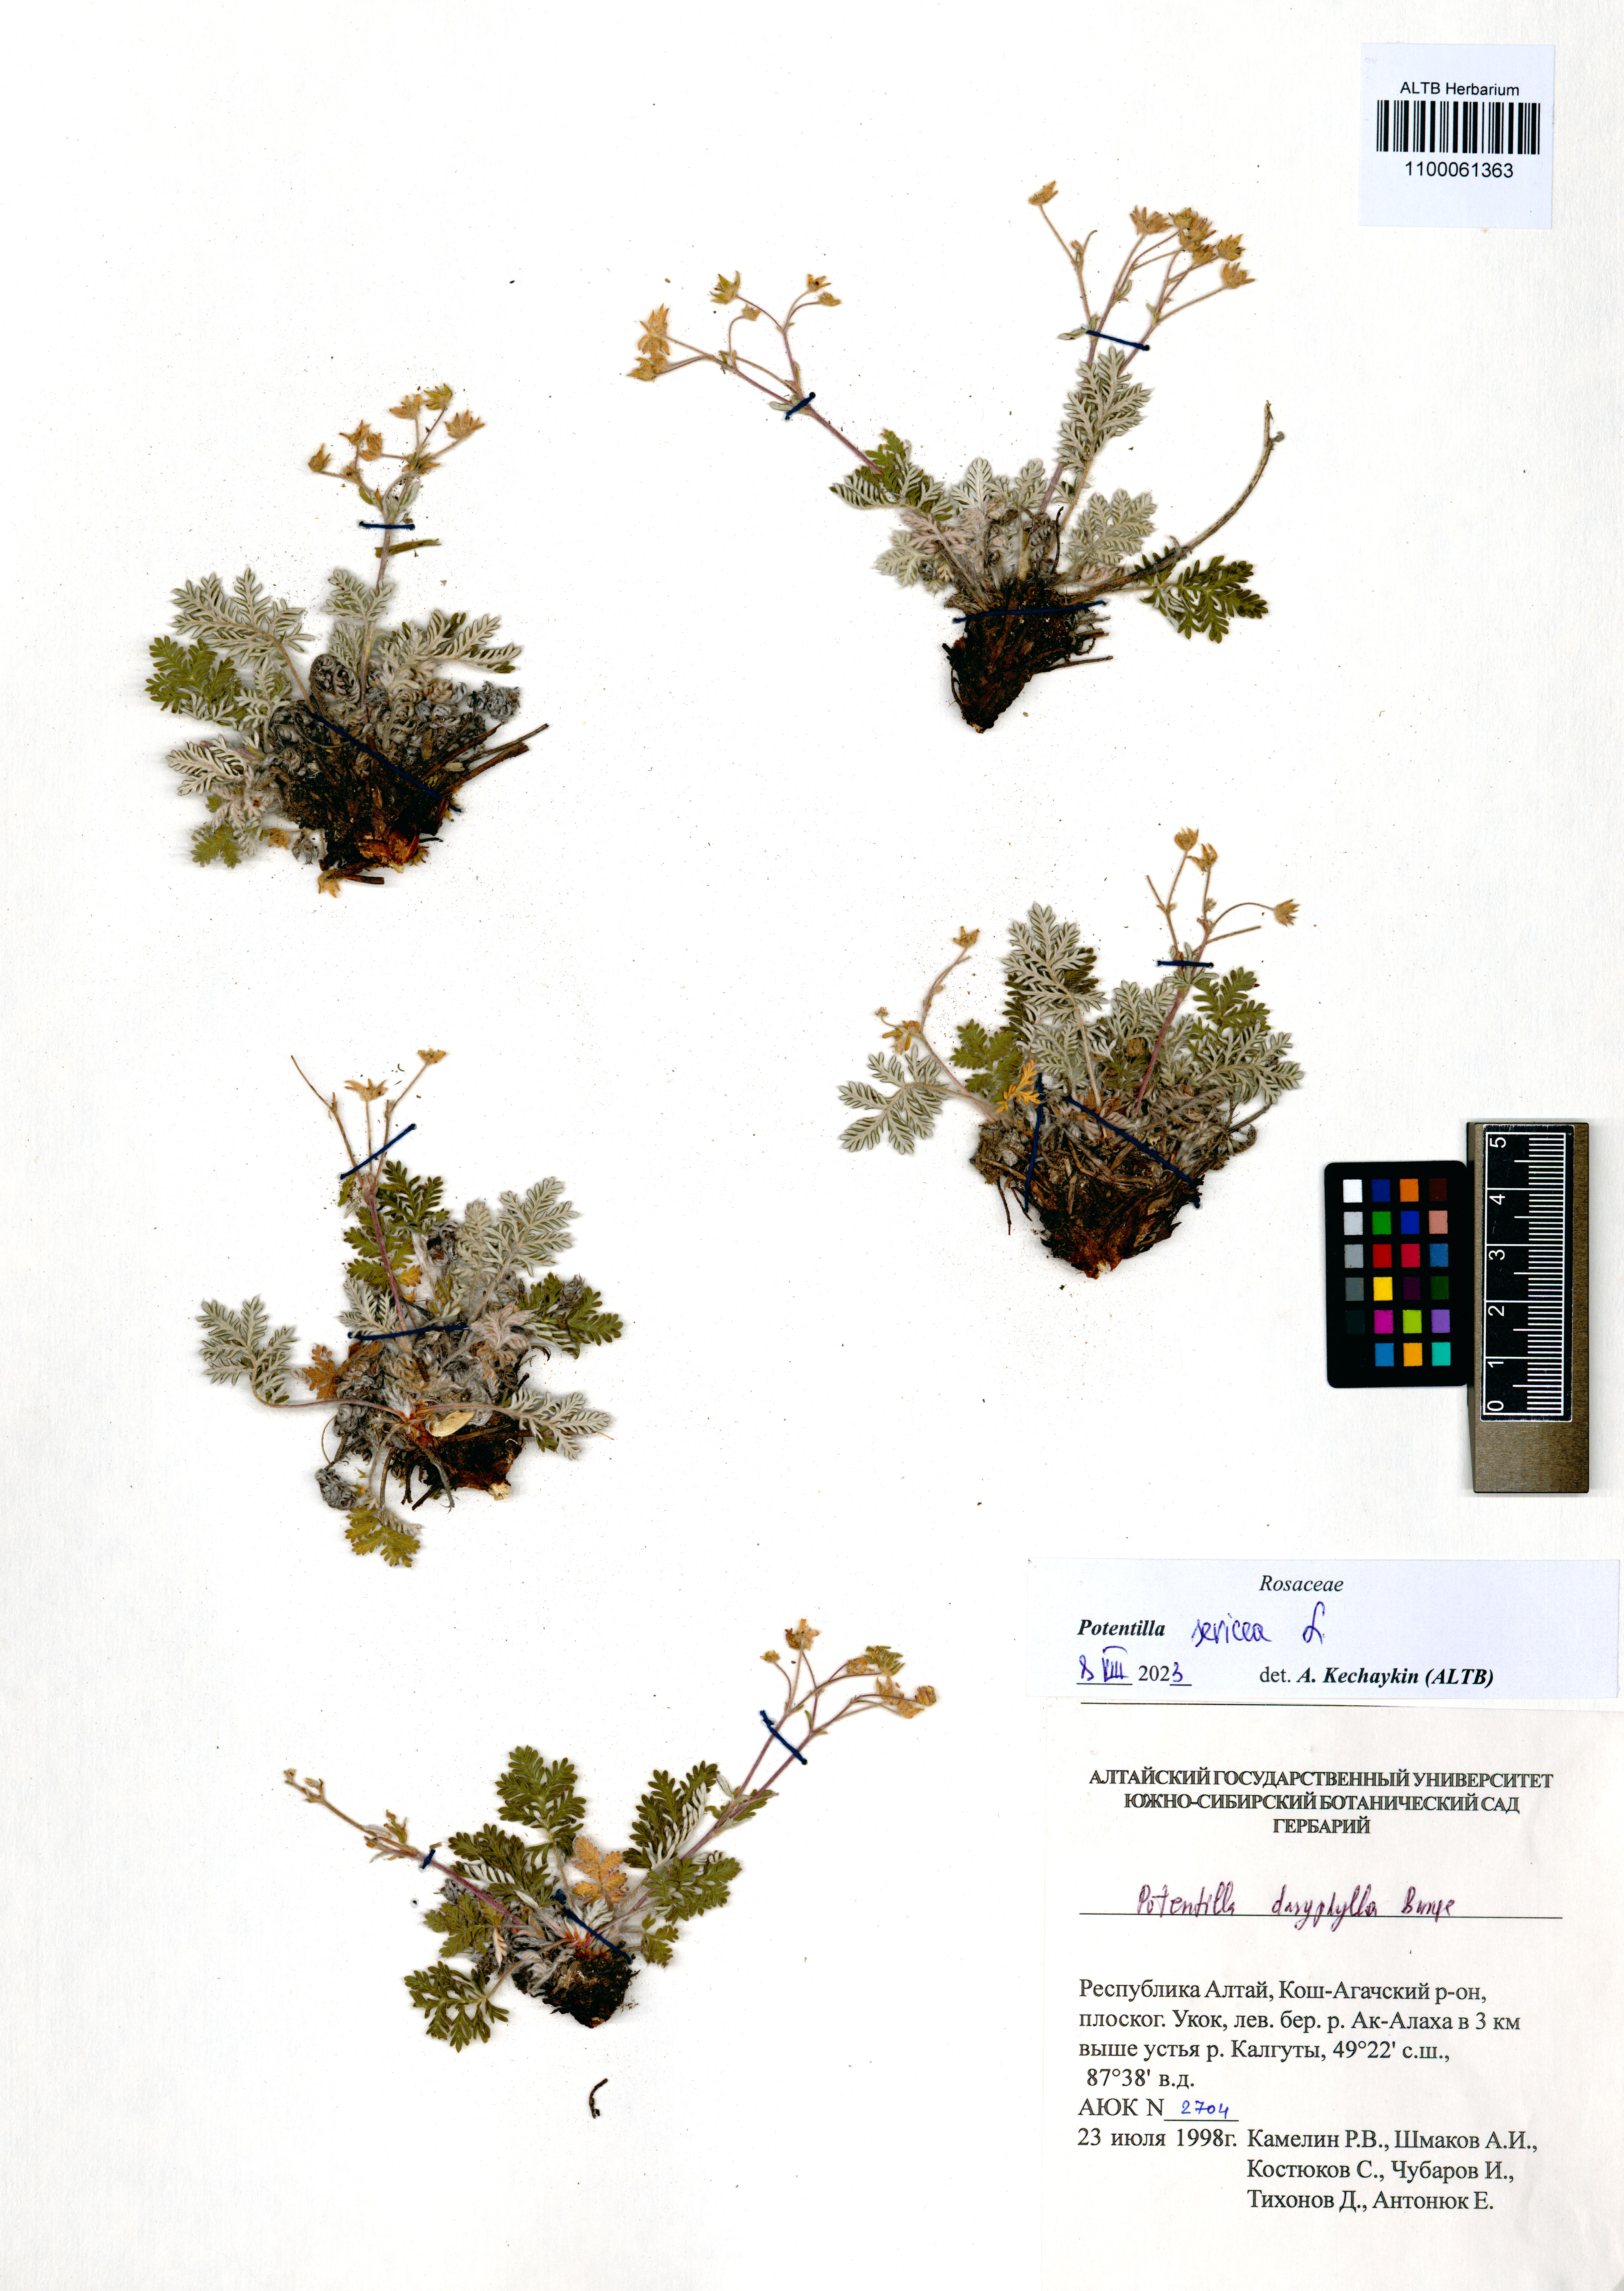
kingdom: Plantae
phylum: Tracheophyta
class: Magnoliopsida
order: Rosales
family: Rosaceae
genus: Potentilla
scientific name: Potentilla sericea
